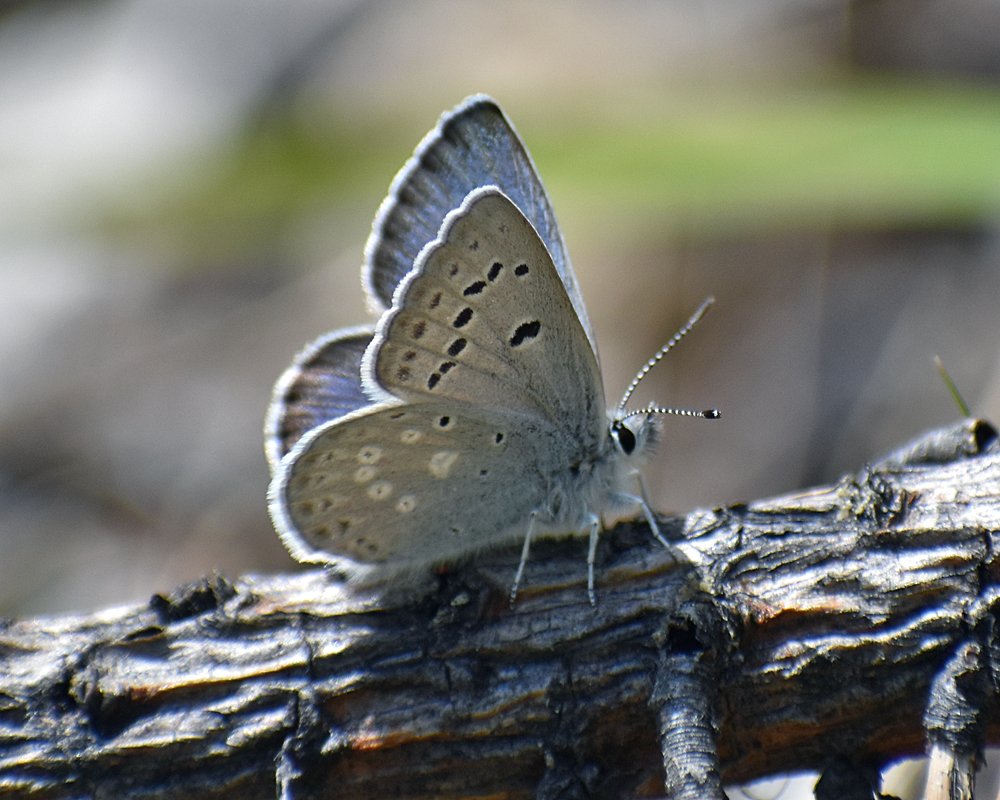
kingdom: Animalia
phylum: Arthropoda
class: Insecta
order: Lepidoptera
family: Lycaenidae
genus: Icaricia
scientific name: Icaricia icarioides
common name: Boisduval's Blue
